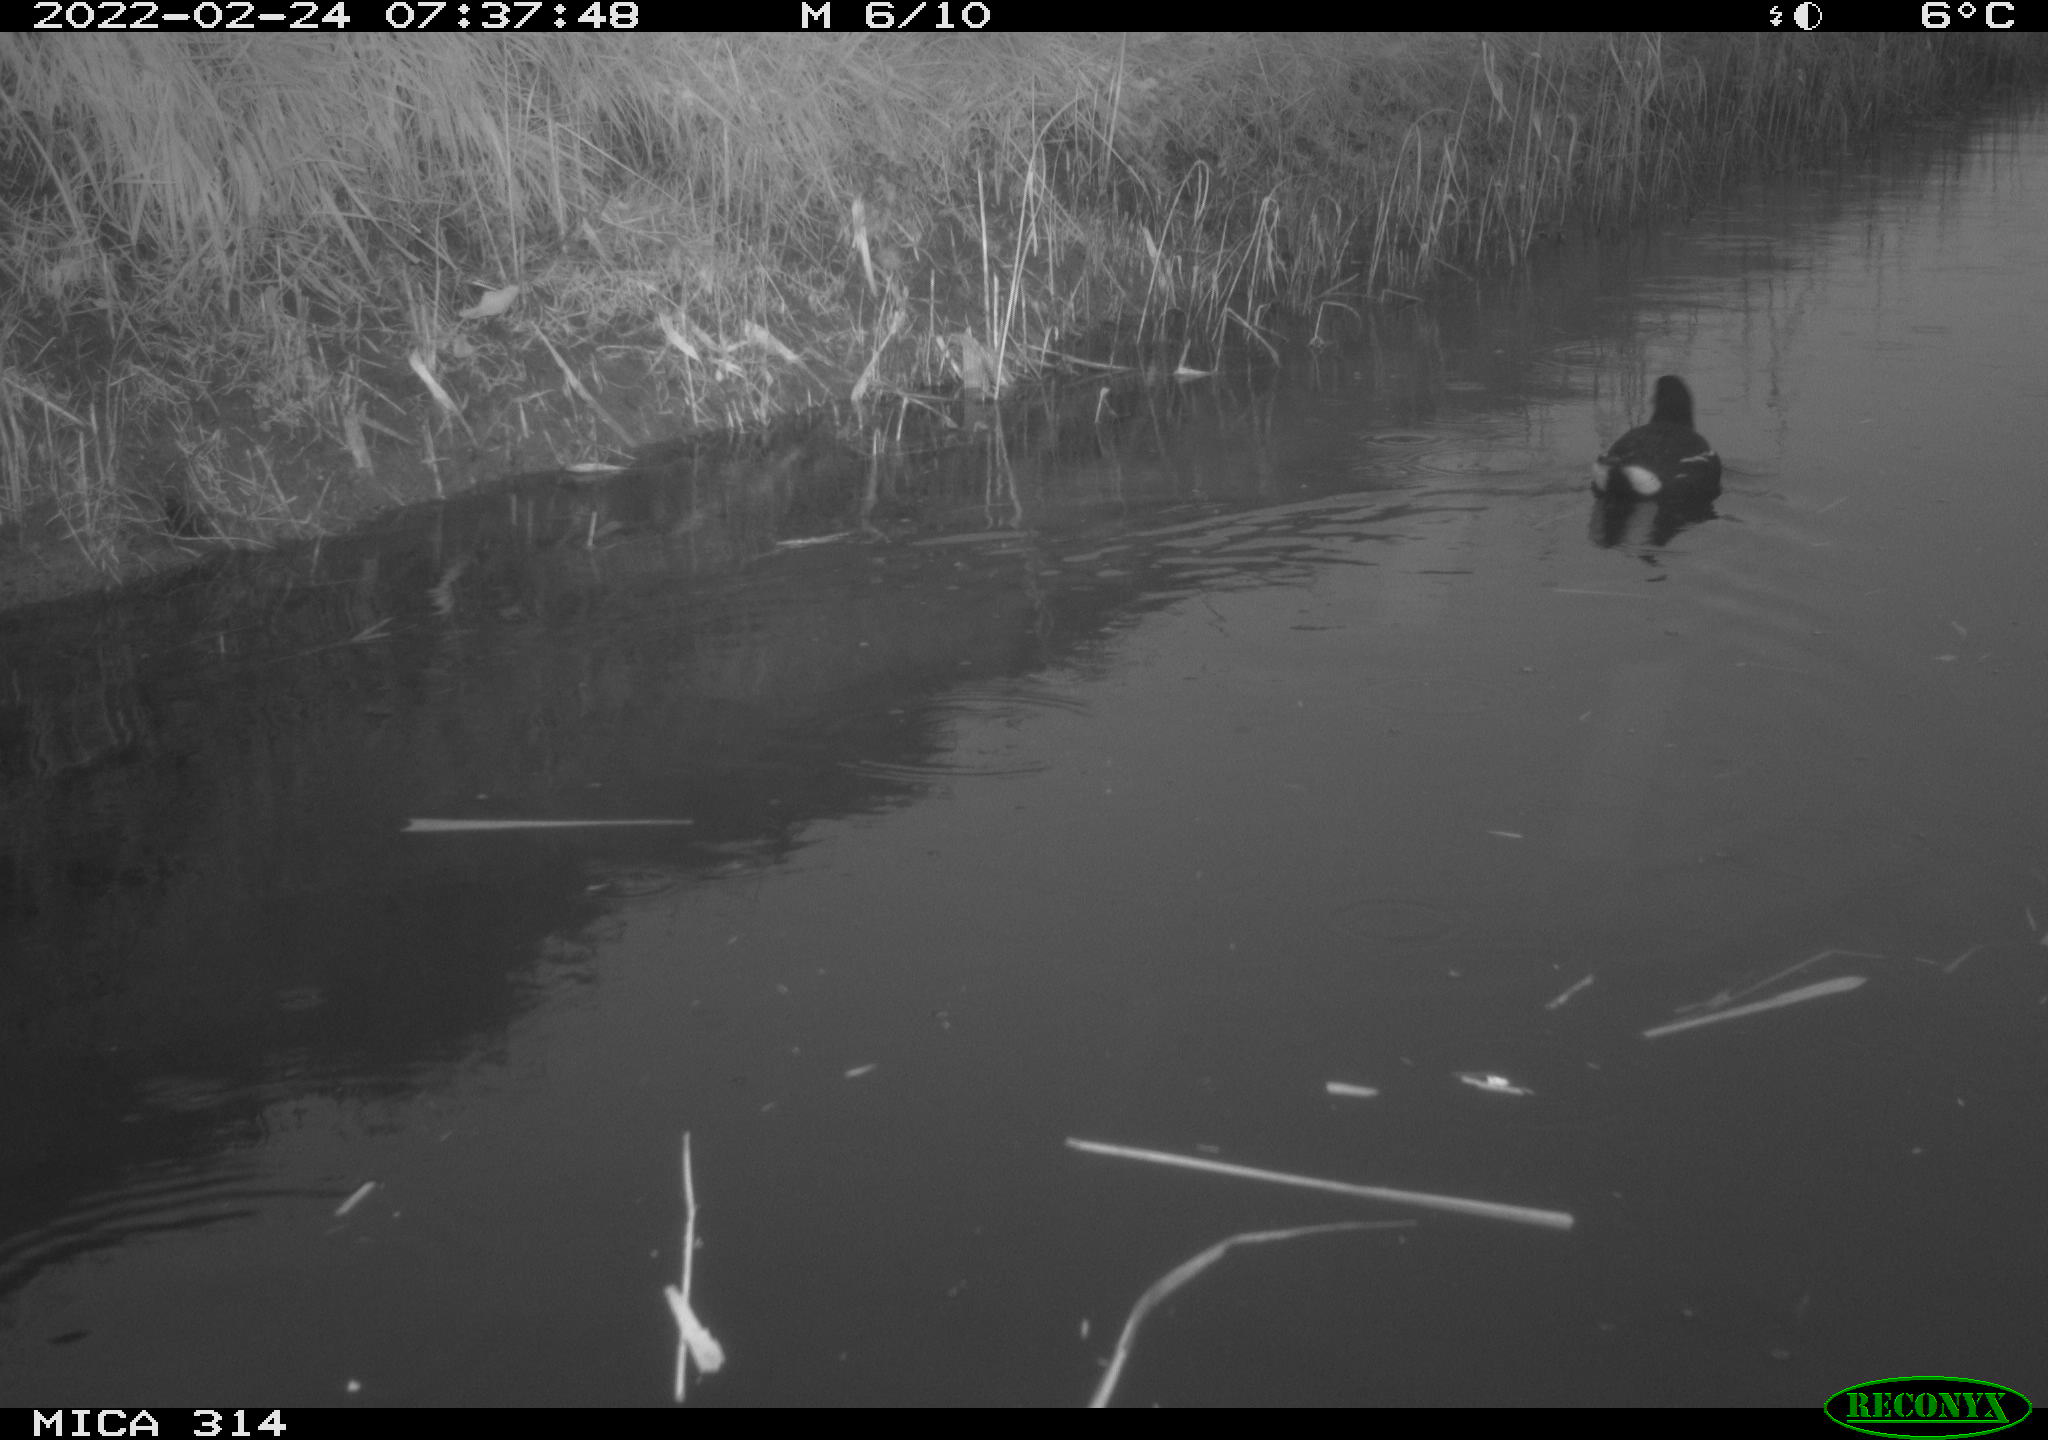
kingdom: Animalia
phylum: Chordata
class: Aves
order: Gruiformes
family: Rallidae
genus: Gallinula
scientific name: Gallinula chloropus
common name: Common moorhen
